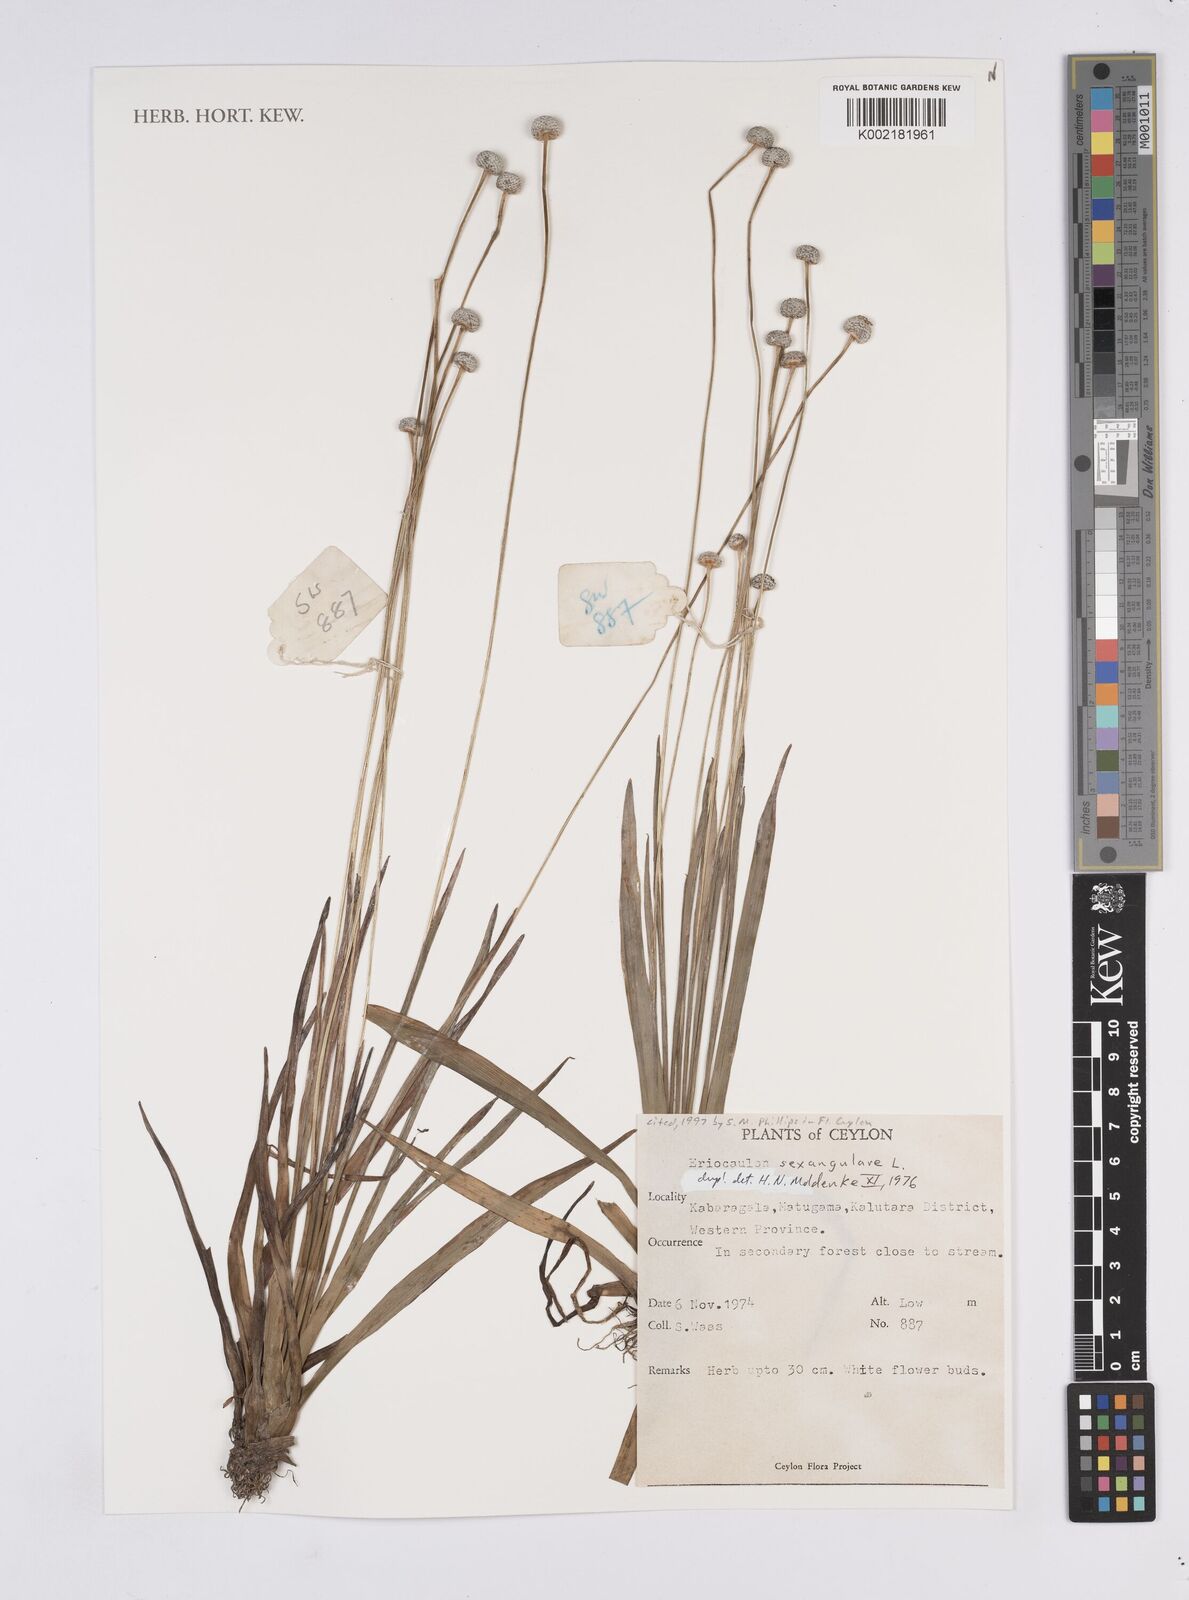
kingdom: Plantae
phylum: Tracheophyta
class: Liliopsida
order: Poales
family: Eriocaulaceae
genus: Eriocaulon
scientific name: Eriocaulon sexangulare
